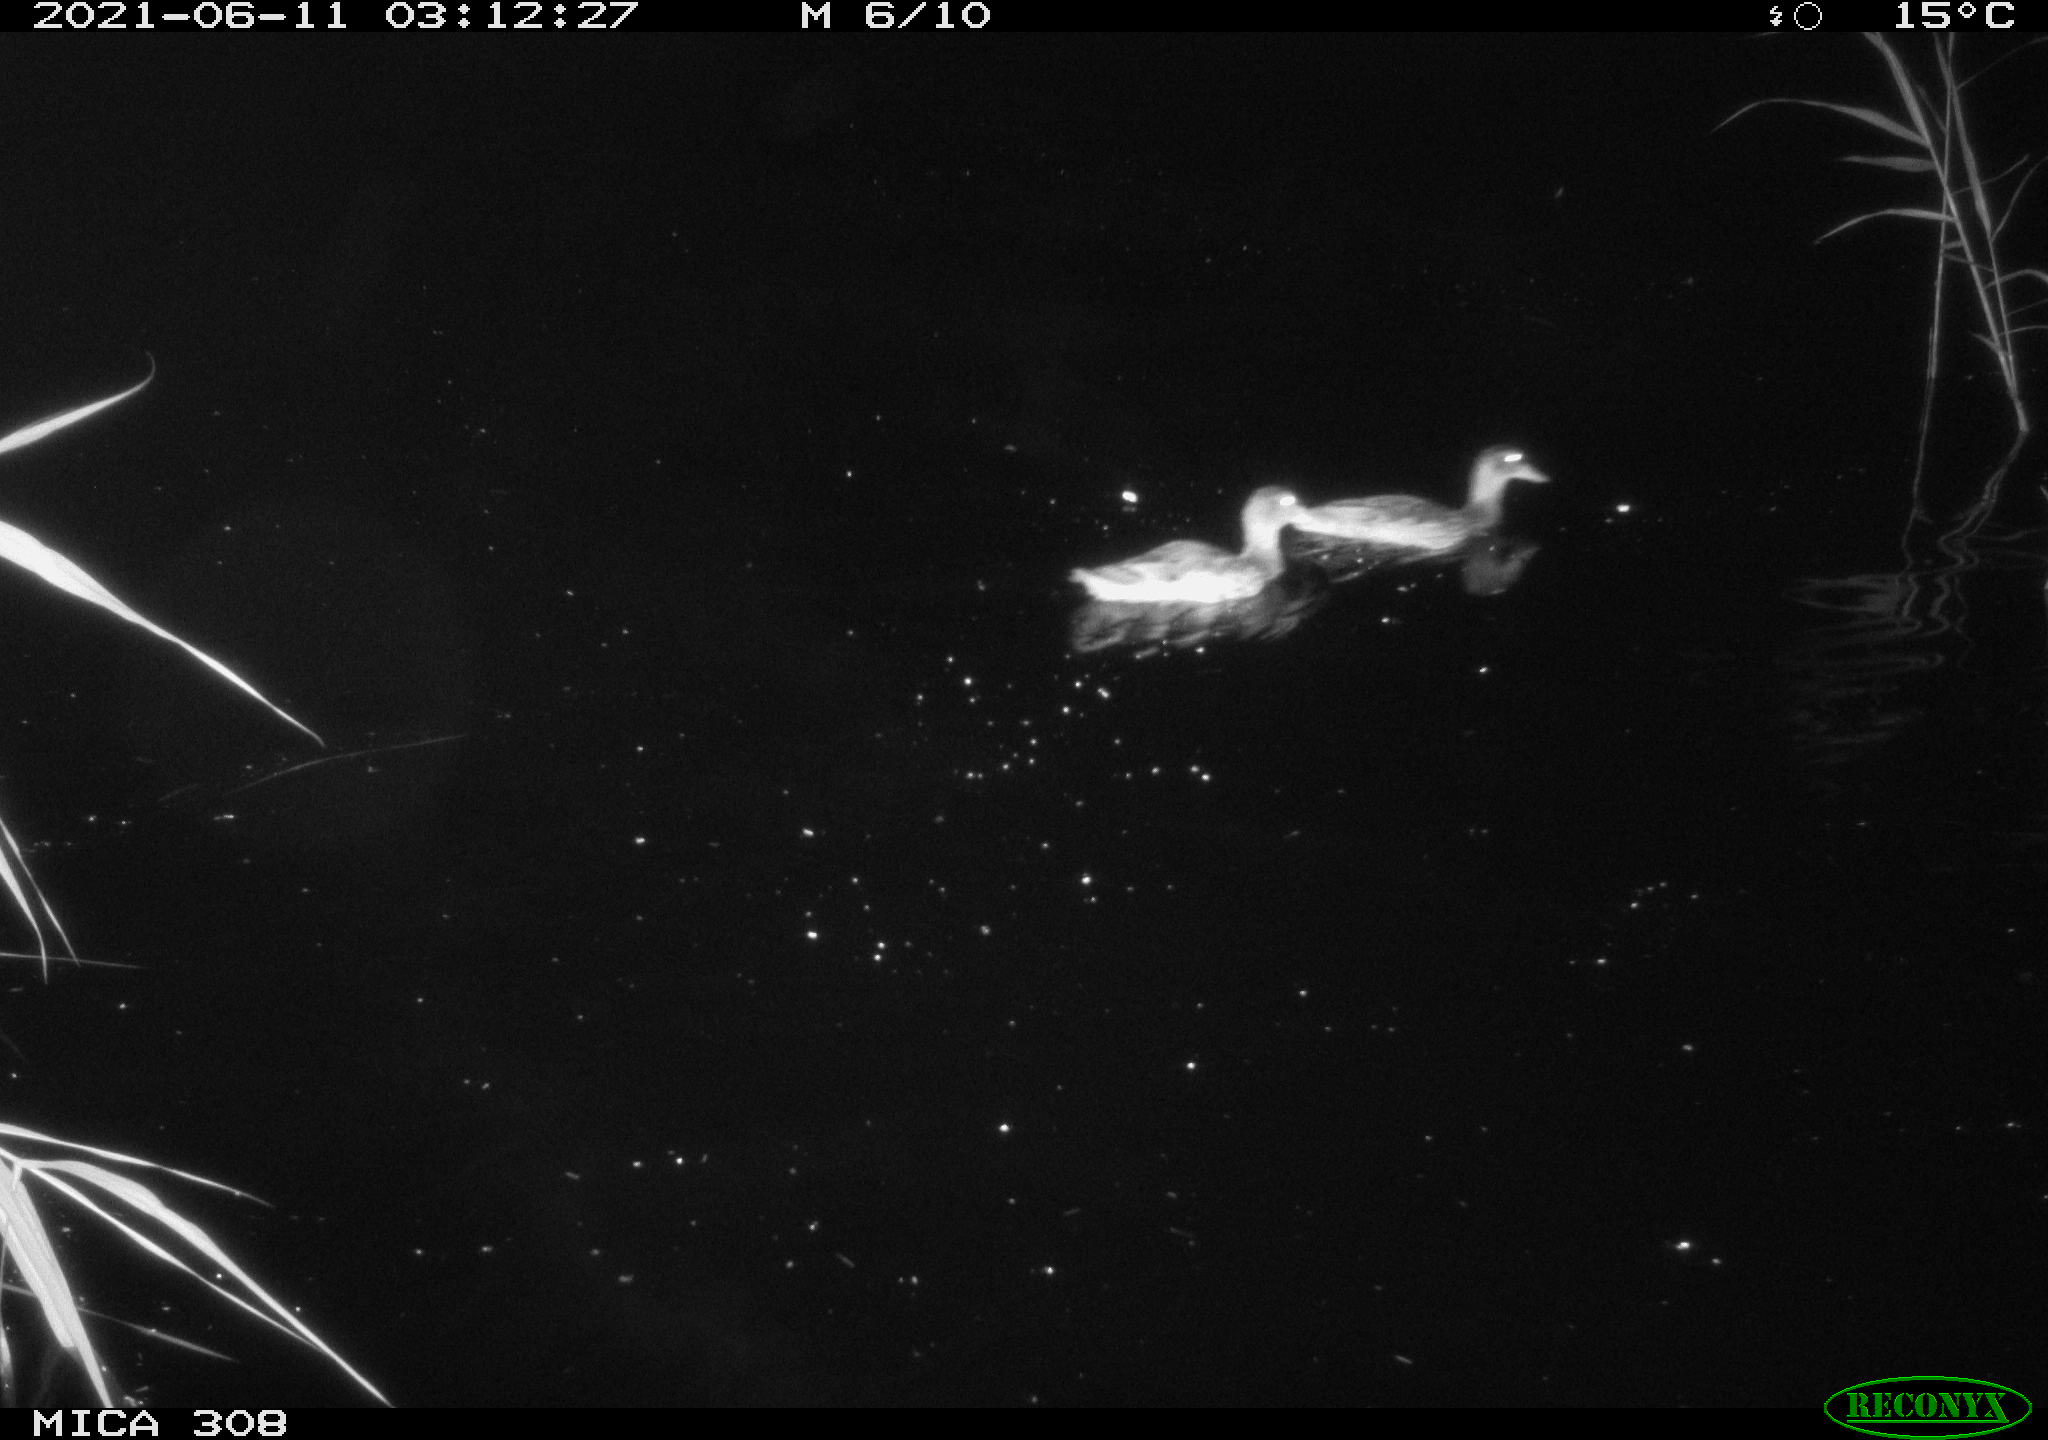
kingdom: Animalia
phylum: Chordata
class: Aves
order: Anseriformes
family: Anatidae
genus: Anas
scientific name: Anas platyrhynchos
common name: Mallard
